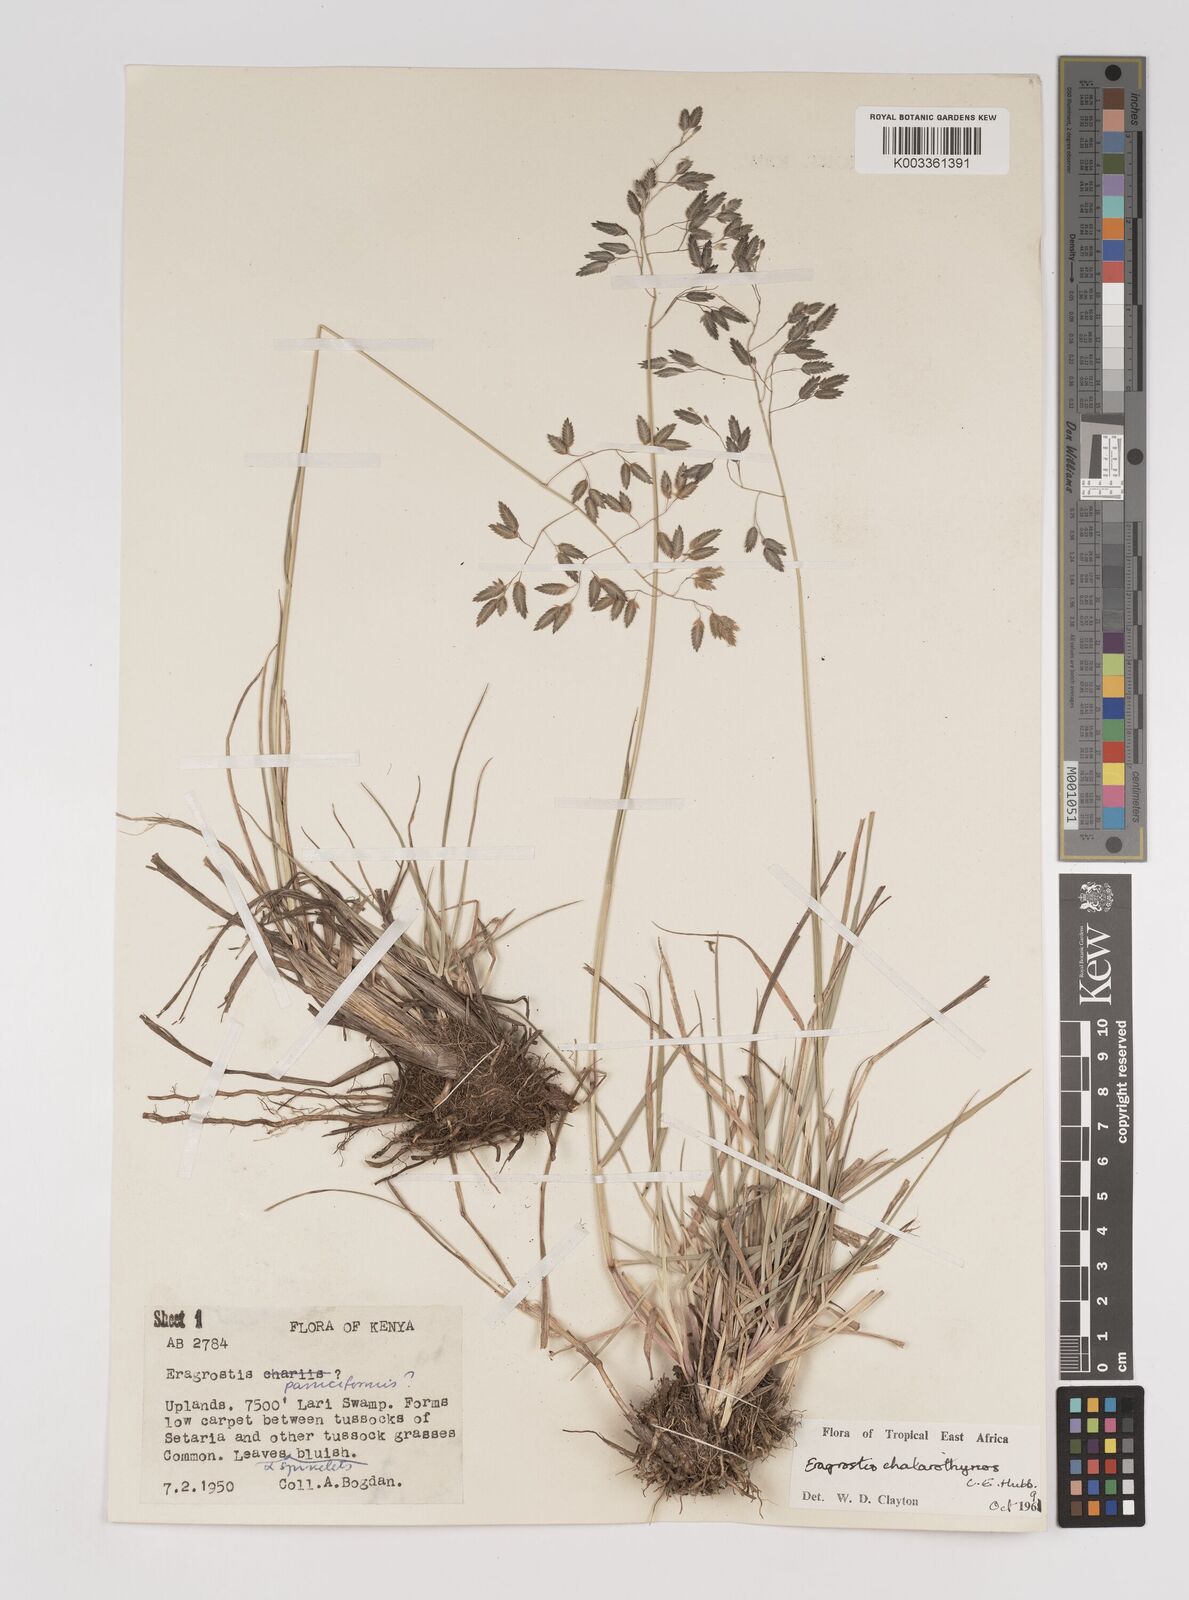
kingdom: Plantae
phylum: Tracheophyta
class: Liliopsida
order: Poales
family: Poaceae
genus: Eragrostis
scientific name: Eragrostis chalarothyrsos
